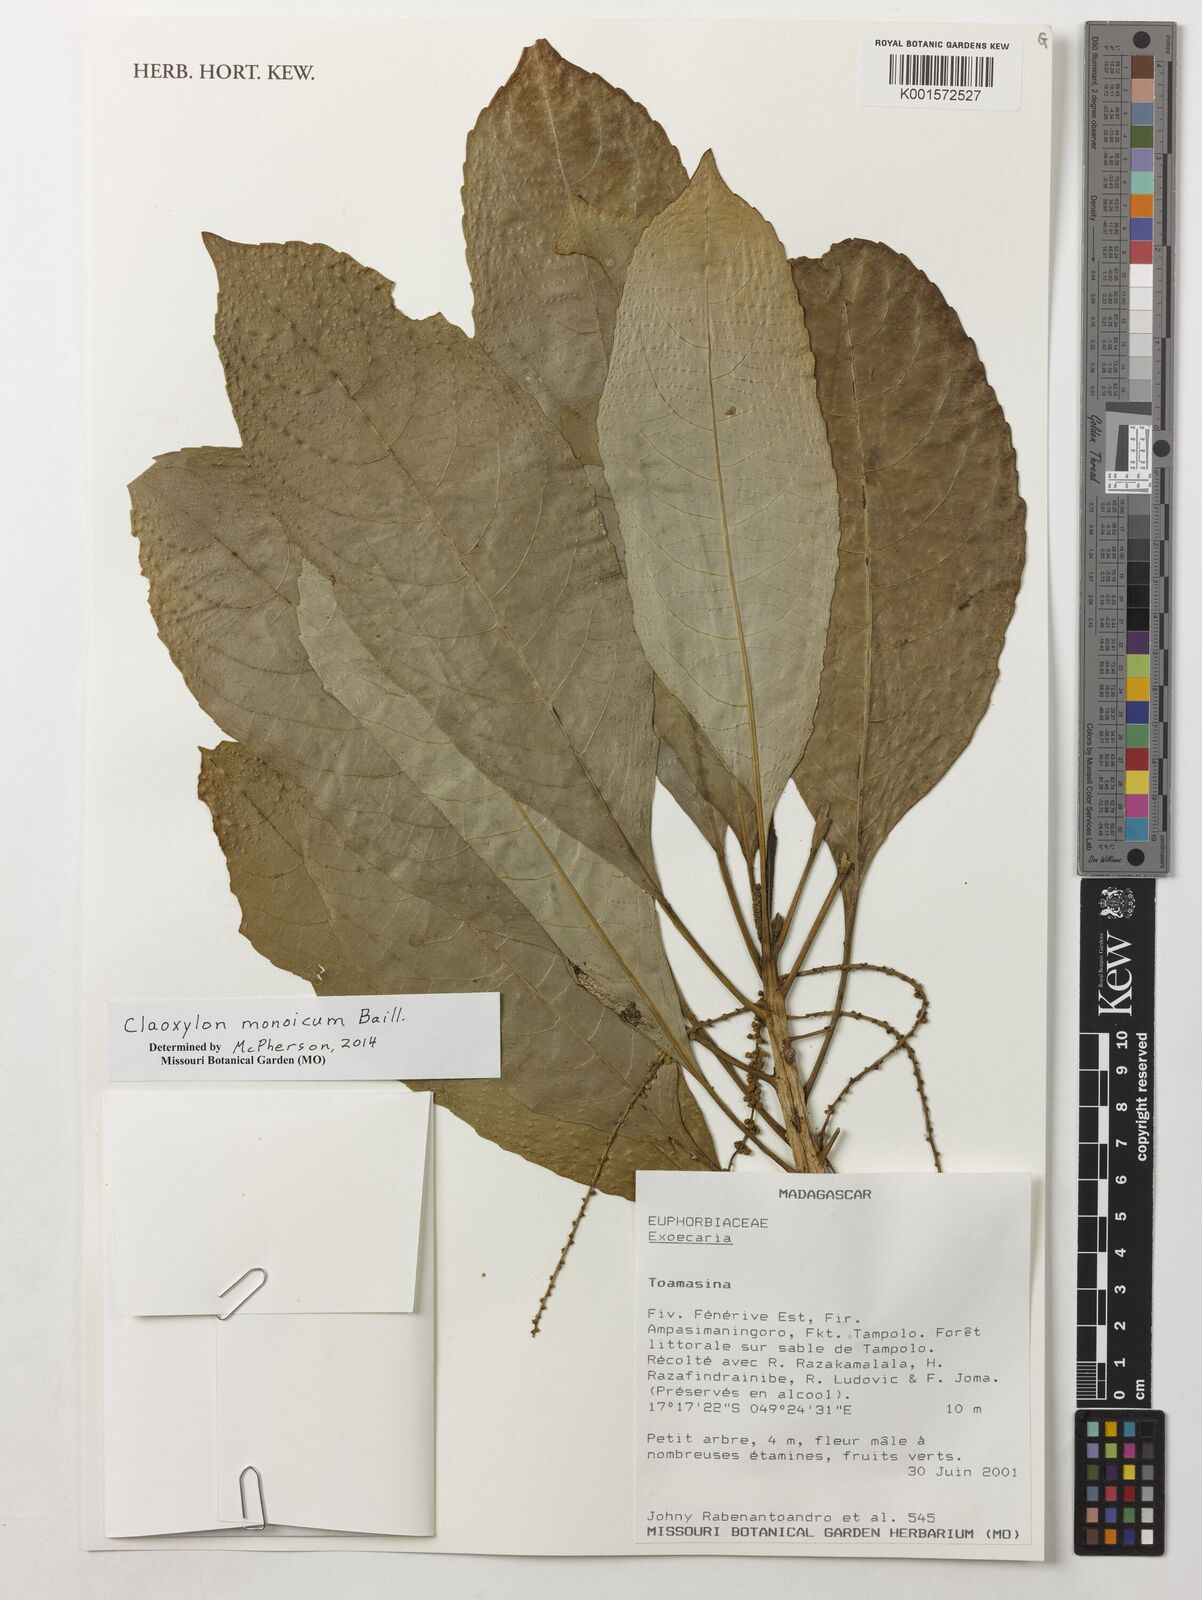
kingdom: Plantae
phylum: Tracheophyta
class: Magnoliopsida
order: Malpighiales
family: Euphorbiaceae
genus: Claoxylon
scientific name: Claoxylon monoicum
